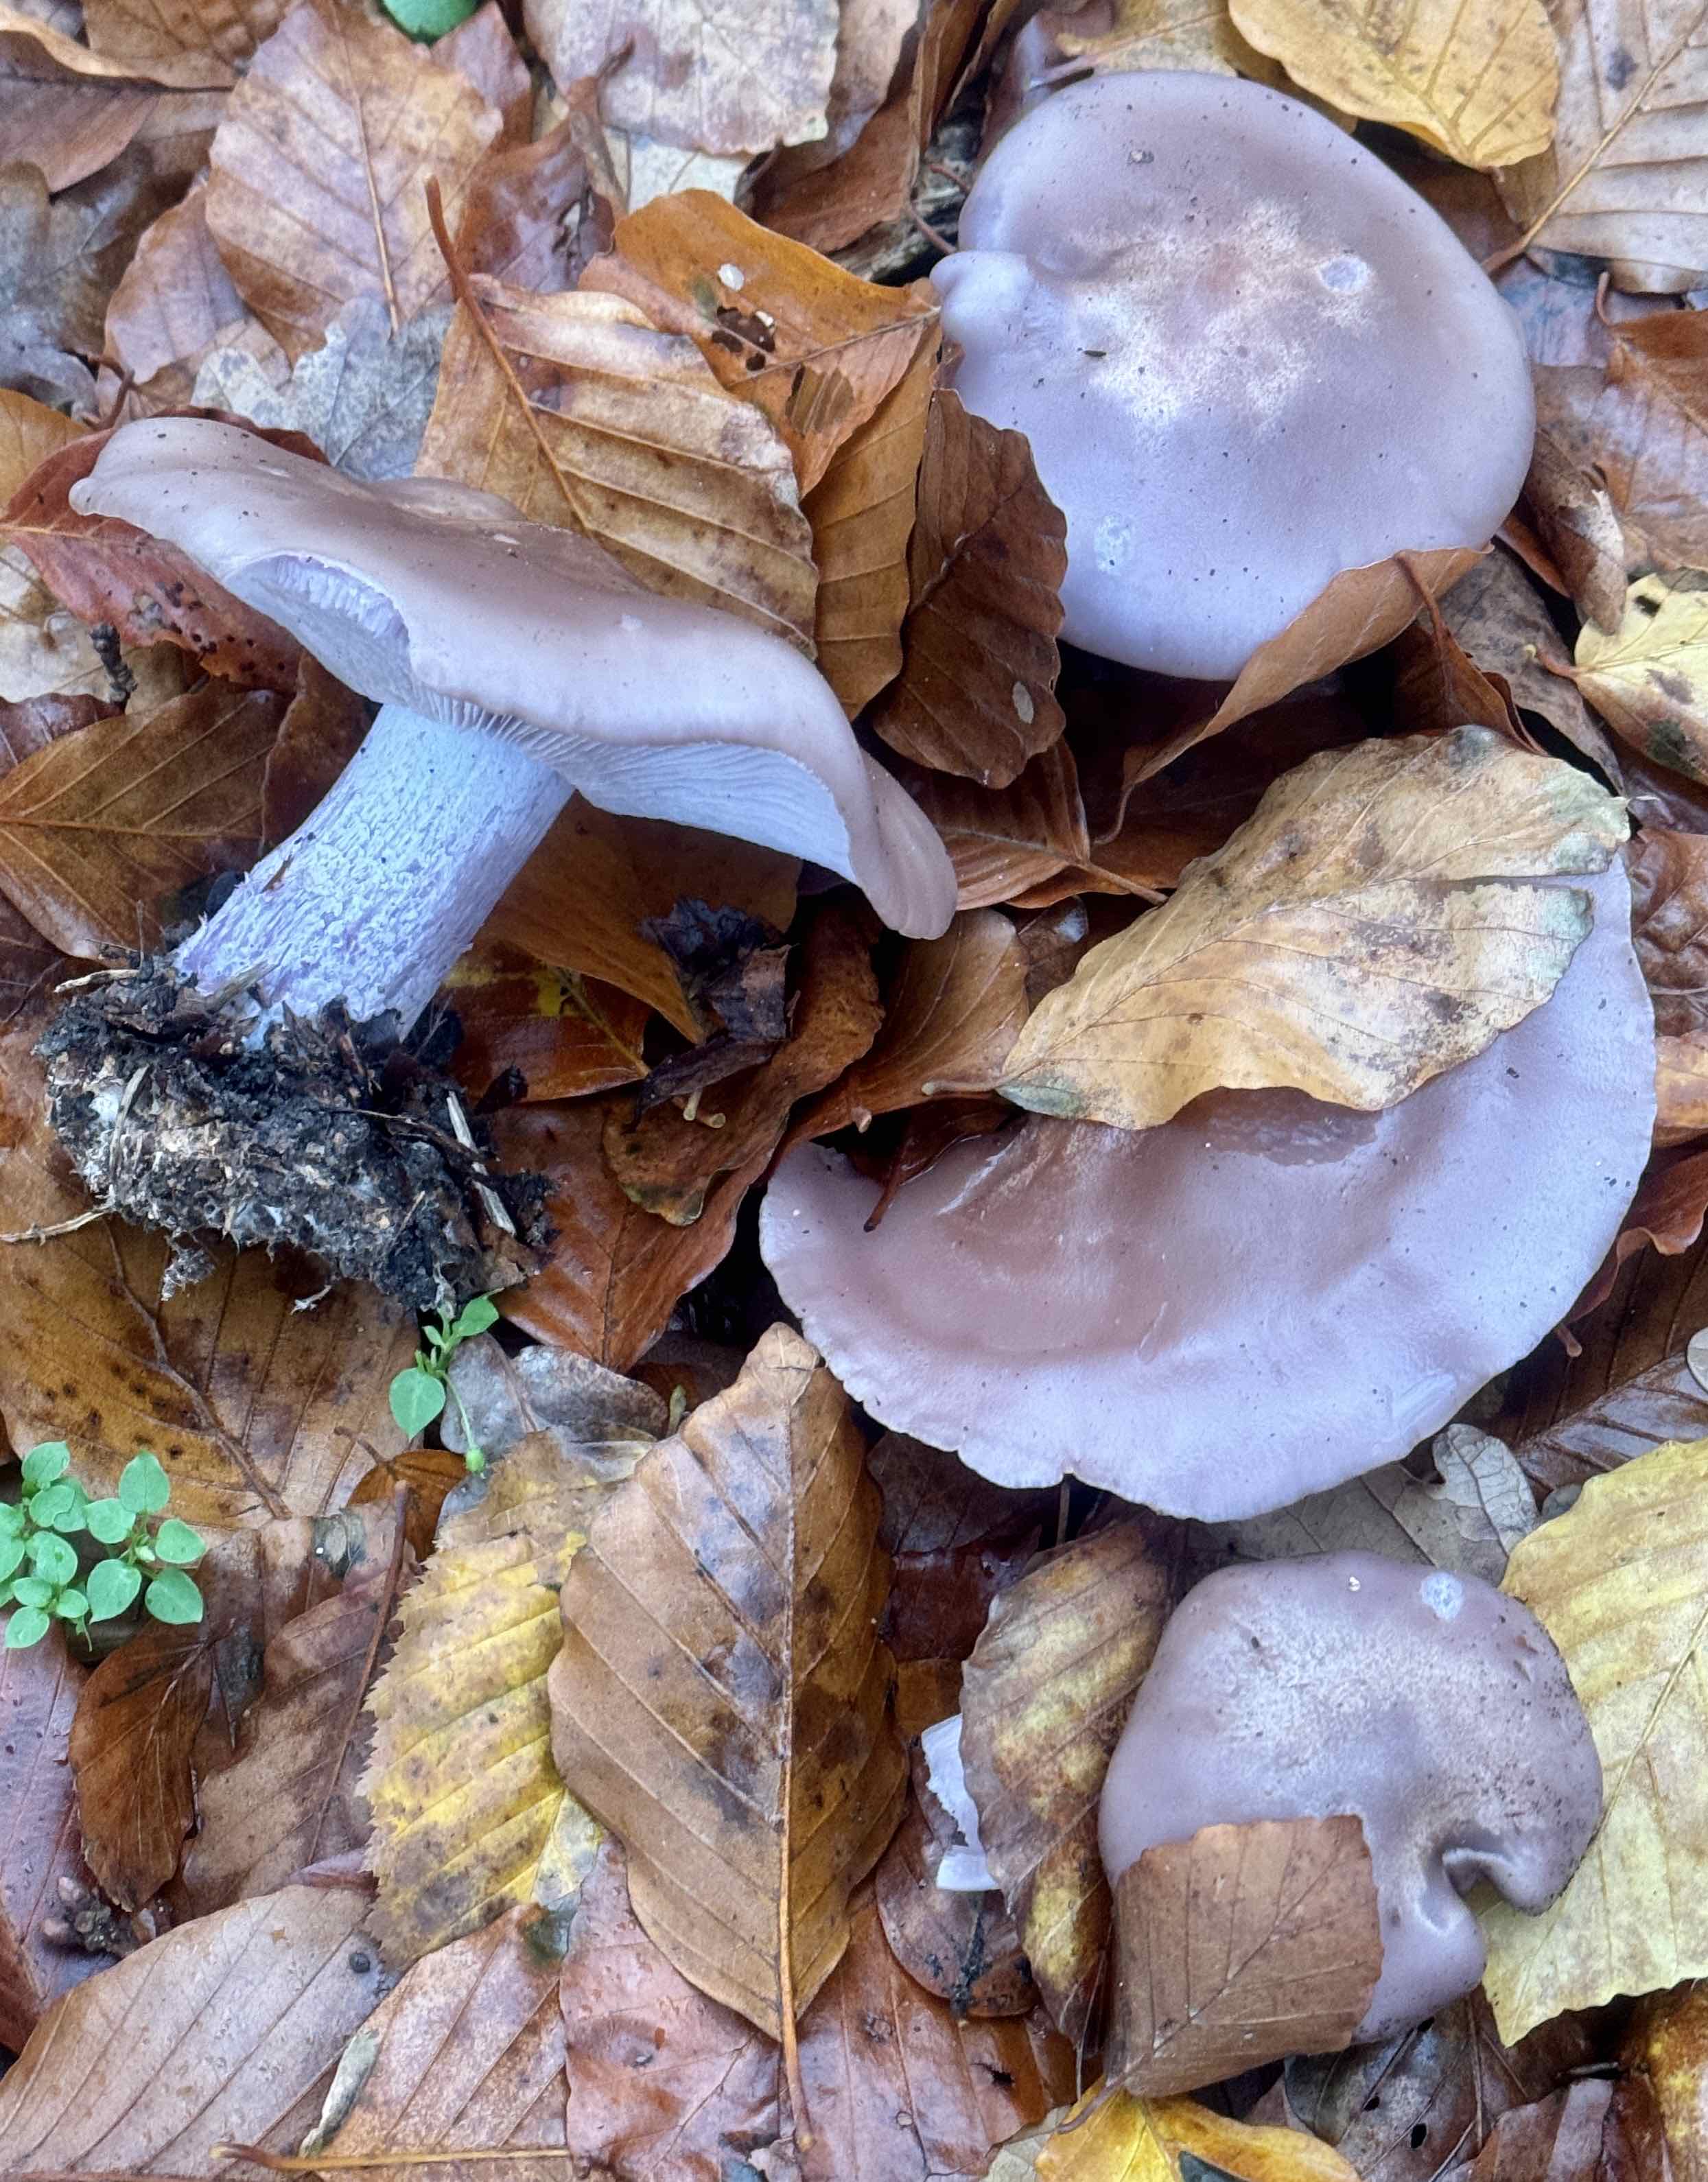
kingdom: Fungi
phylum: Basidiomycota
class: Agaricomycetes
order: Agaricales
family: Tricholomataceae
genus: Lepista
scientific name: Lepista nuda
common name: violet hekseringshat
